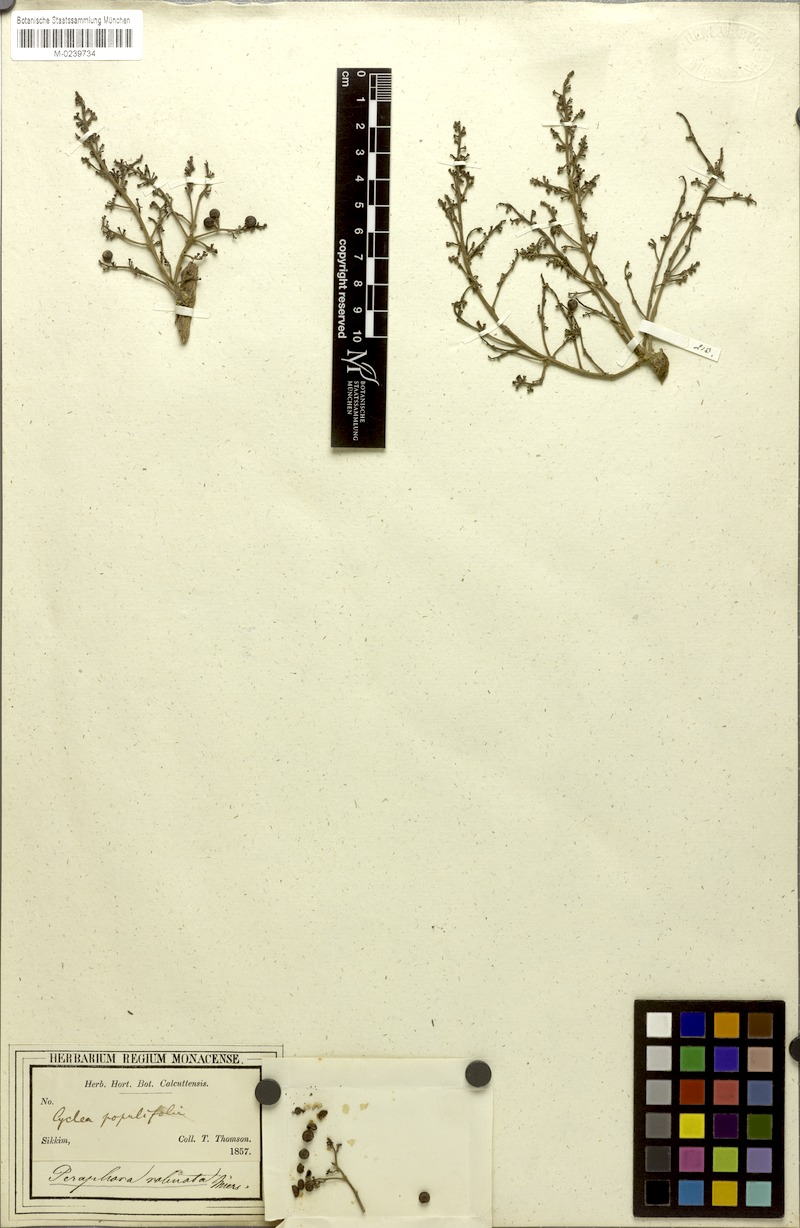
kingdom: Plantae
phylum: Tracheophyta
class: Magnoliopsida
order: Ranunculales
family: Menispermaceae
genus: Cyclea
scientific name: Cyclea bicristata
